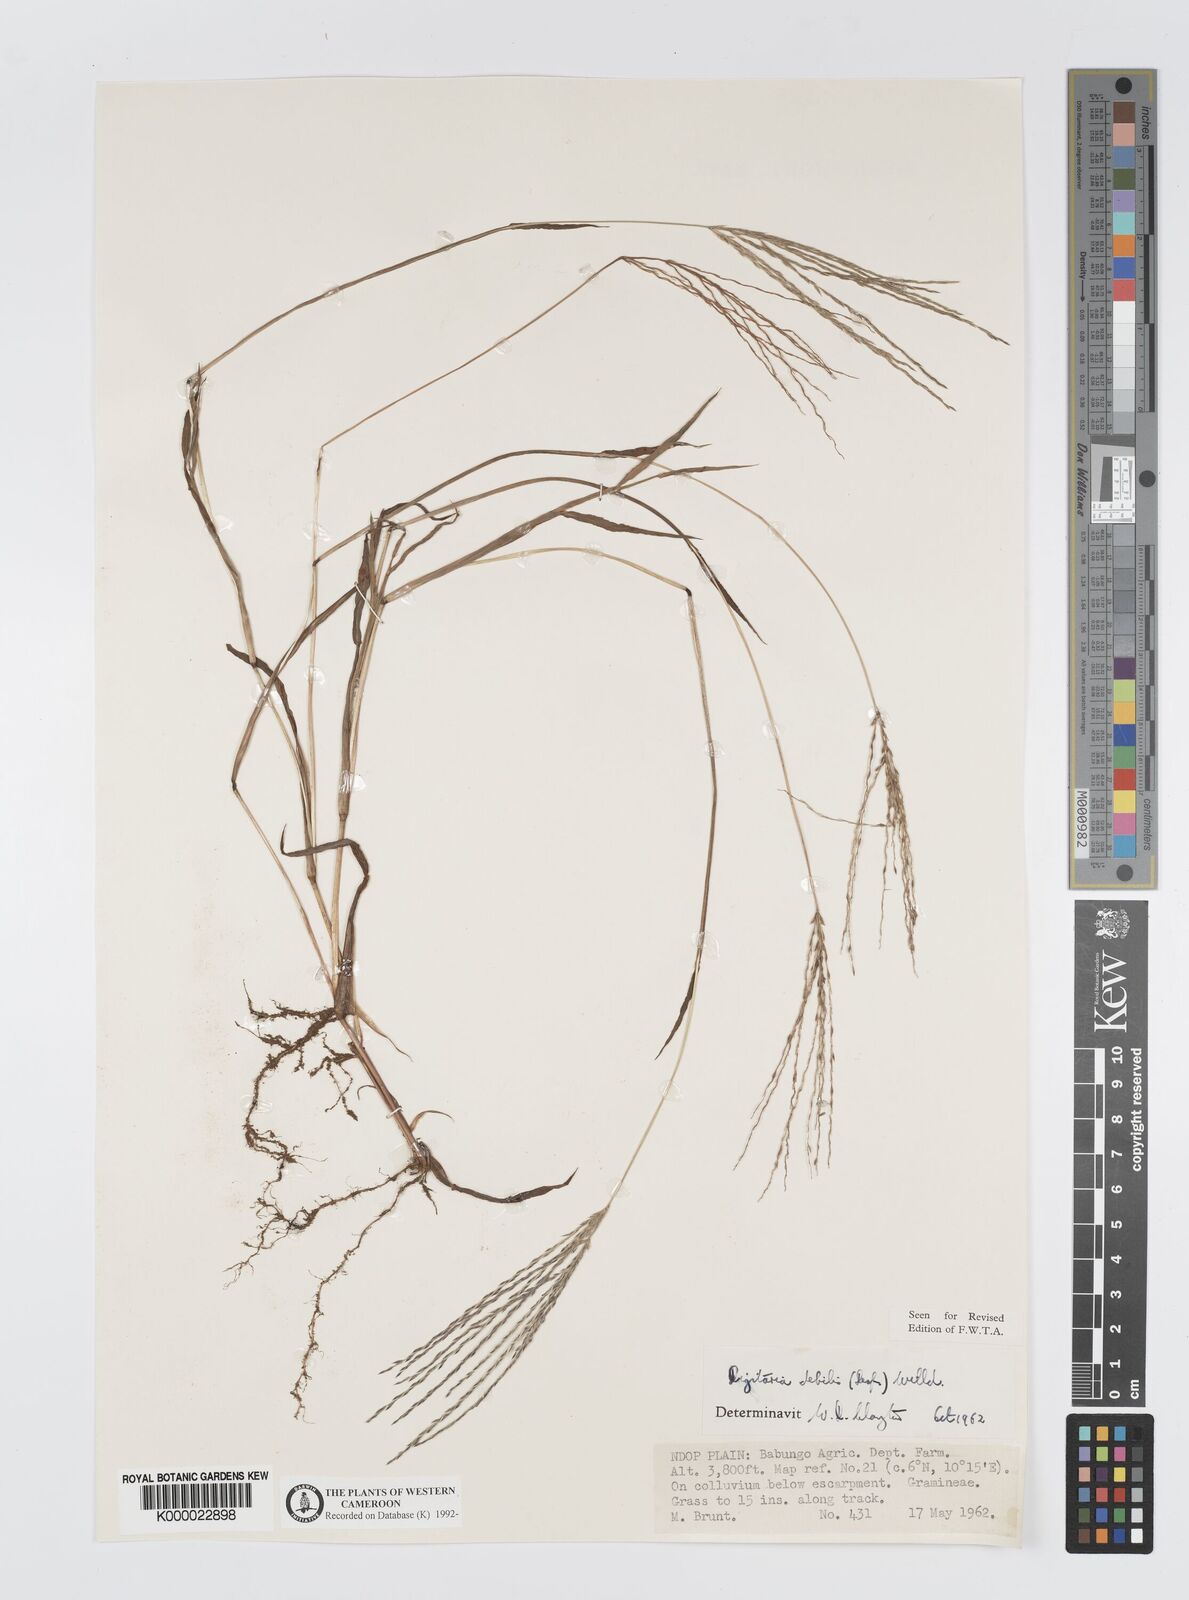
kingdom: Plantae
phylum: Tracheophyta
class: Liliopsida
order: Poales
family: Poaceae
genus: Digitaria
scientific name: Digitaria debilis
